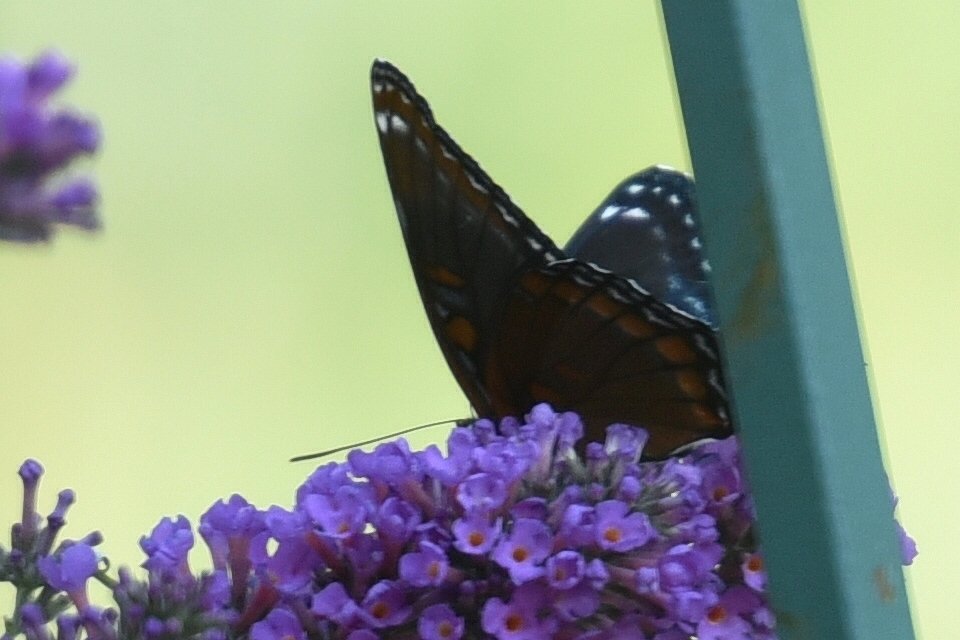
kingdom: Animalia
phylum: Arthropoda
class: Insecta
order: Lepidoptera
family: Nymphalidae
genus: Limenitis
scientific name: Limenitis astyanax
